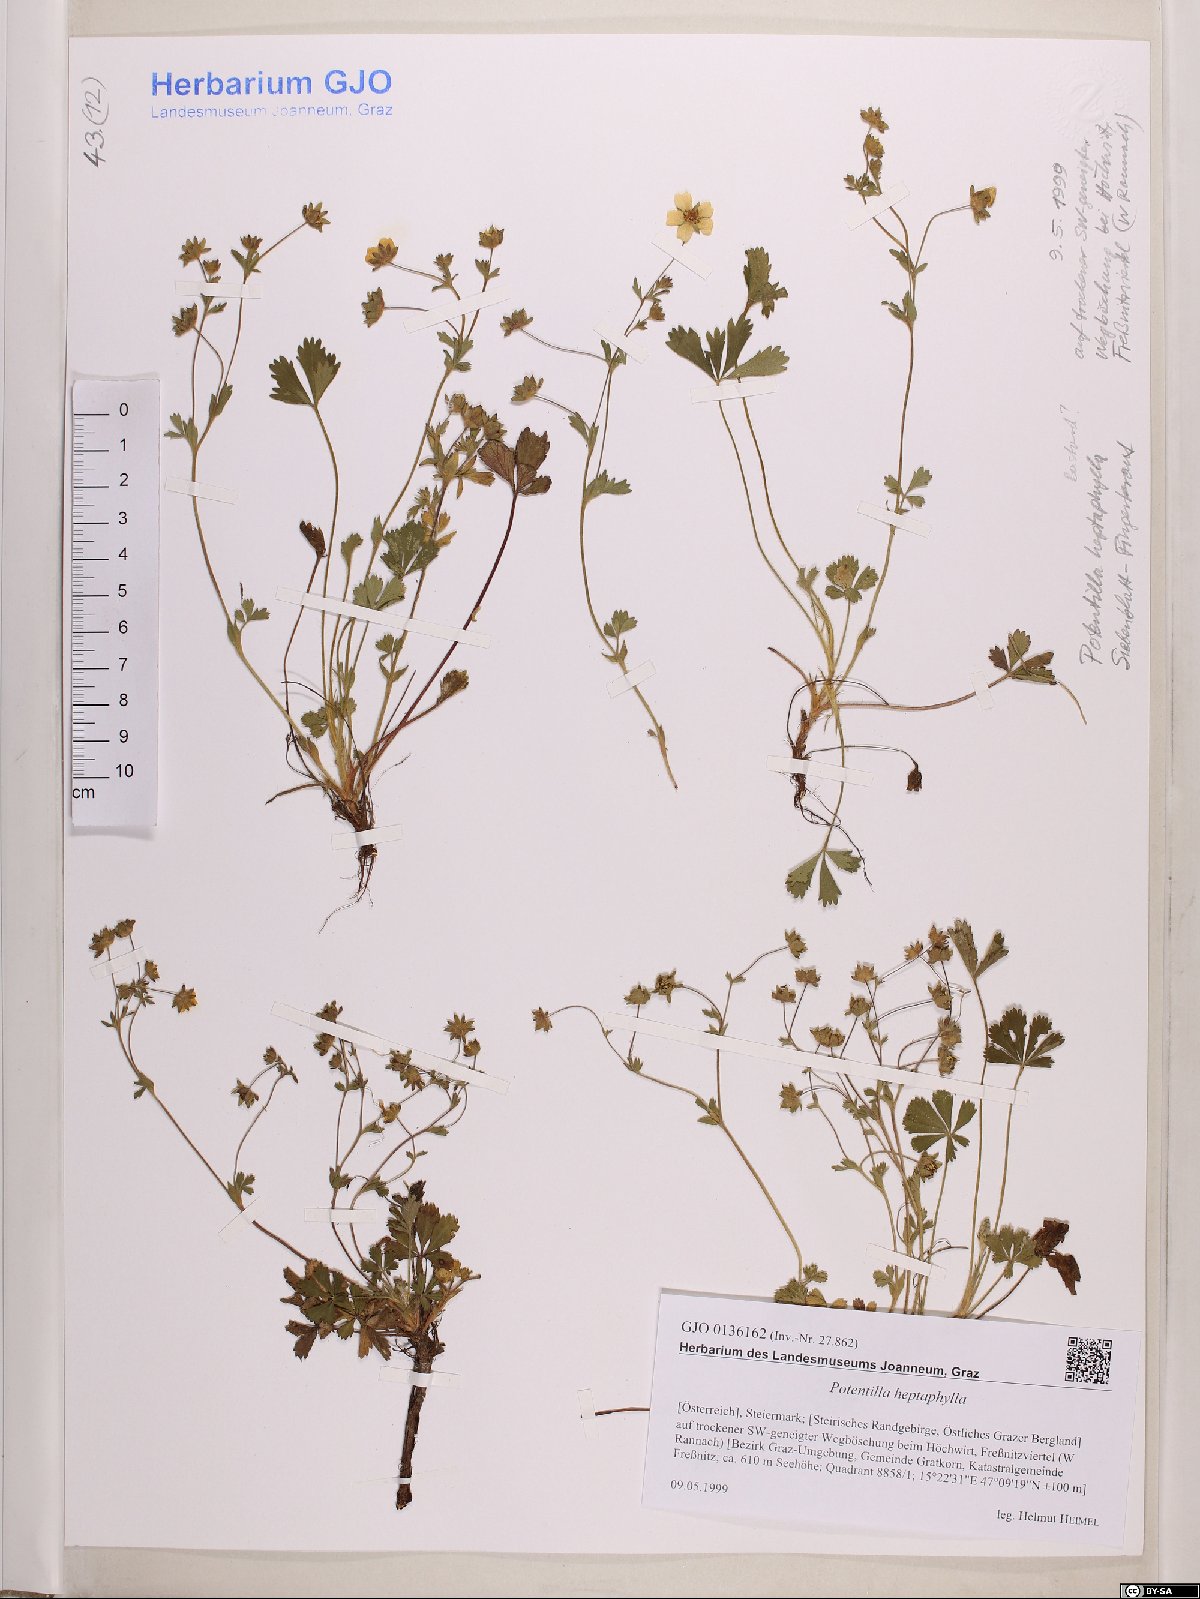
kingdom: Plantae
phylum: Tracheophyta
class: Magnoliopsida
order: Rosales
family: Rosaceae
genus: Potentilla
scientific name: Potentilla heptaphylla
